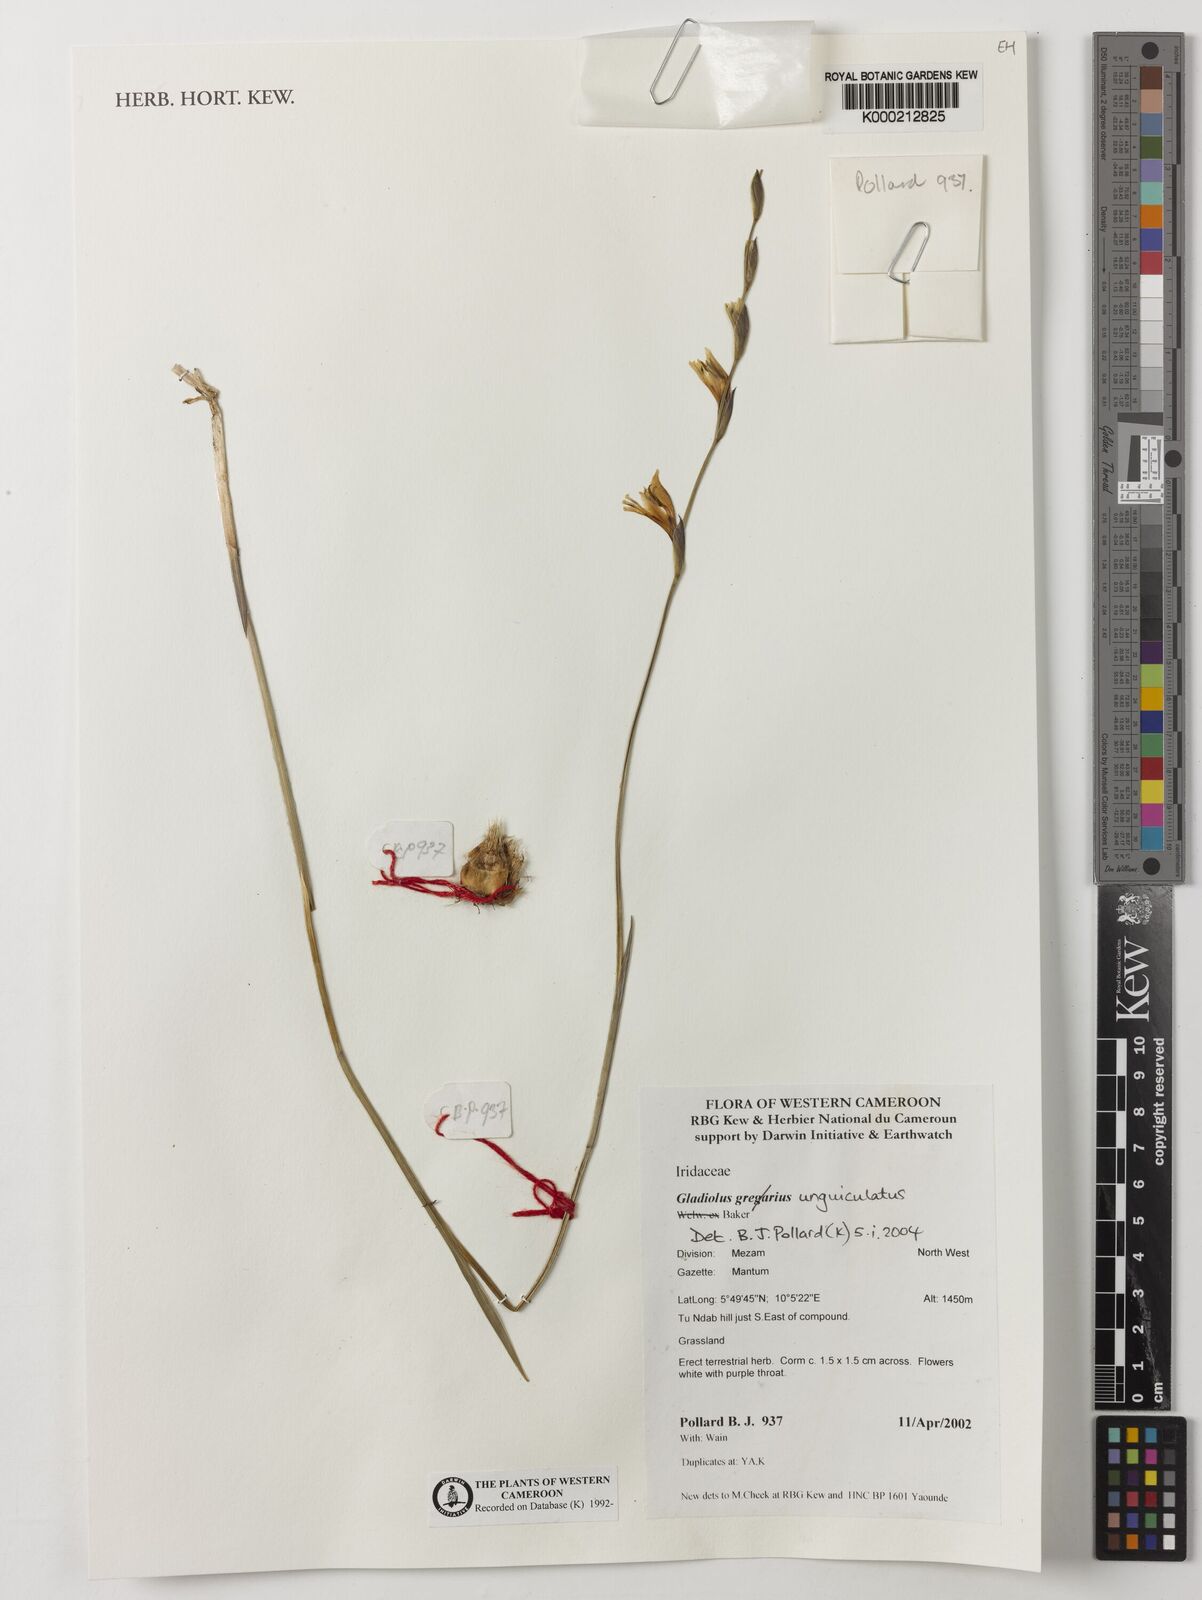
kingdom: Plantae
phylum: Tracheophyta
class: Liliopsida
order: Asparagales
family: Iridaceae
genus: Gladiolus
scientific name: Gladiolus unguiculatus
